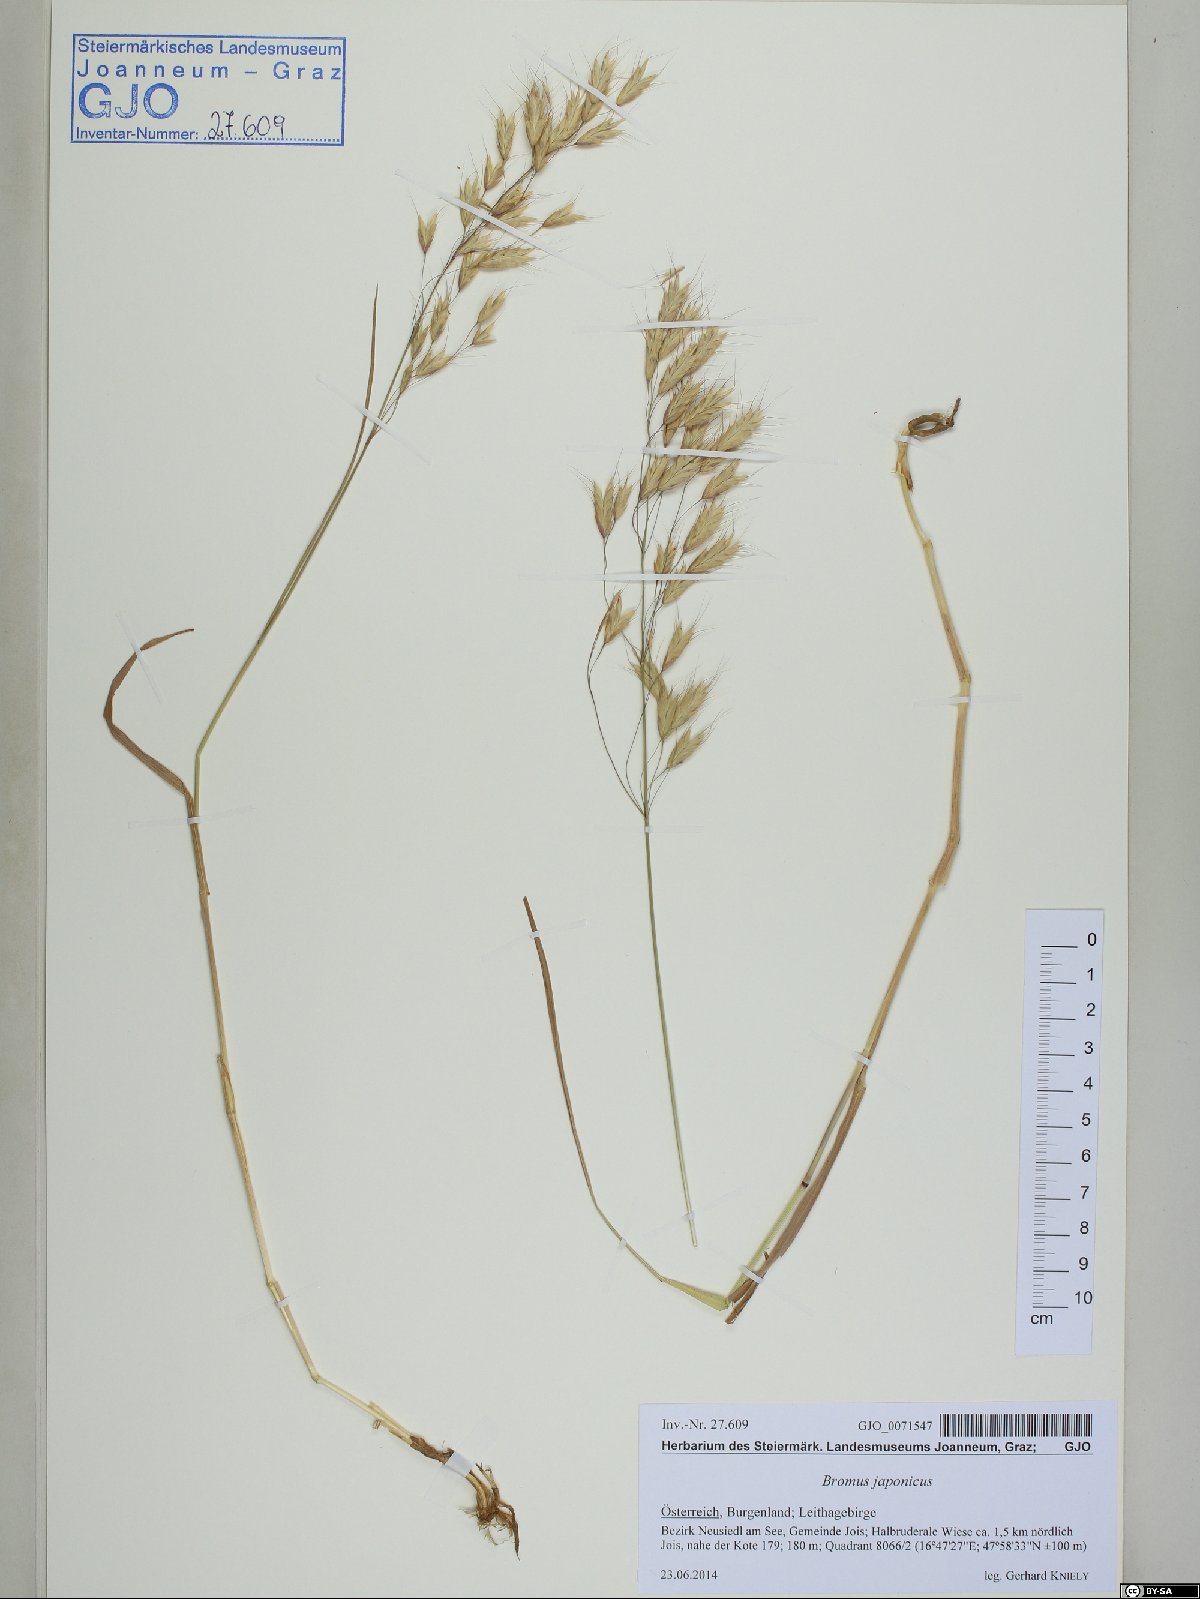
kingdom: Plantae
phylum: Tracheophyta
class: Liliopsida
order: Poales
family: Poaceae
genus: Bromus
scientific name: Bromus japonicus
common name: Japanese brome
